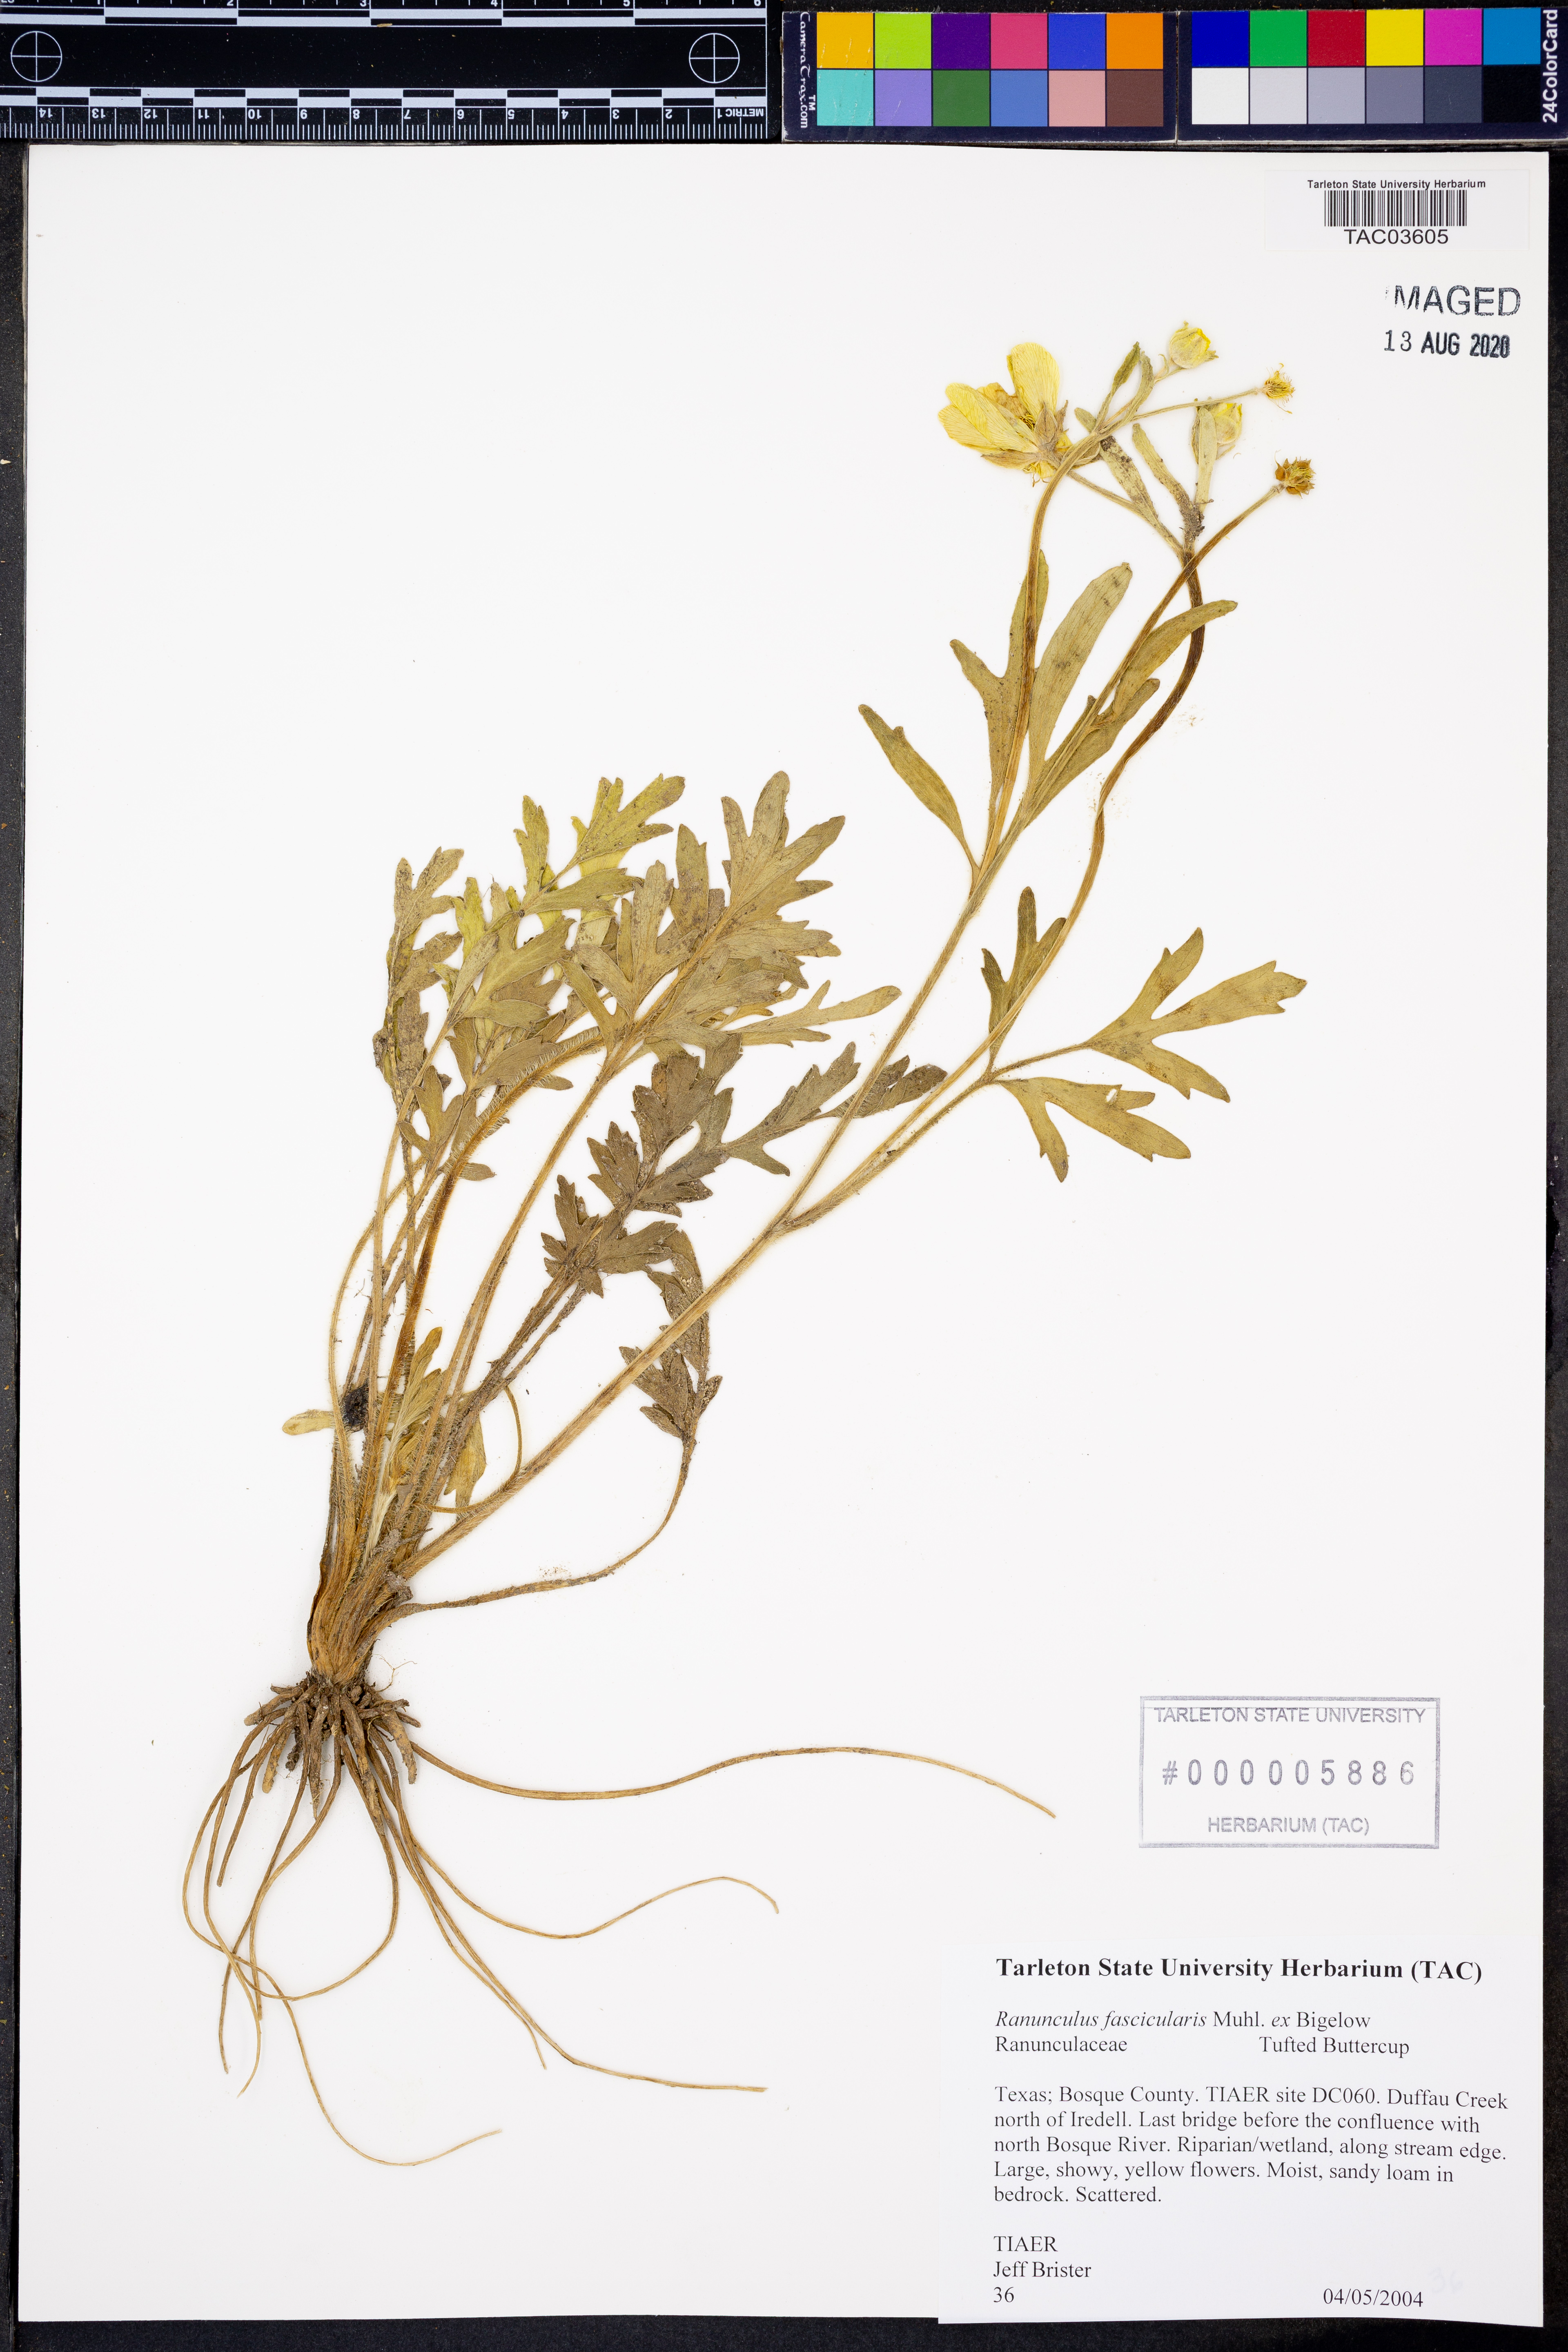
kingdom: Plantae
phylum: Tracheophyta
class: Magnoliopsida
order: Ranunculales
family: Ranunculaceae
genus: Ranunculus
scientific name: Ranunculus fascicularis
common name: Early buttercup
